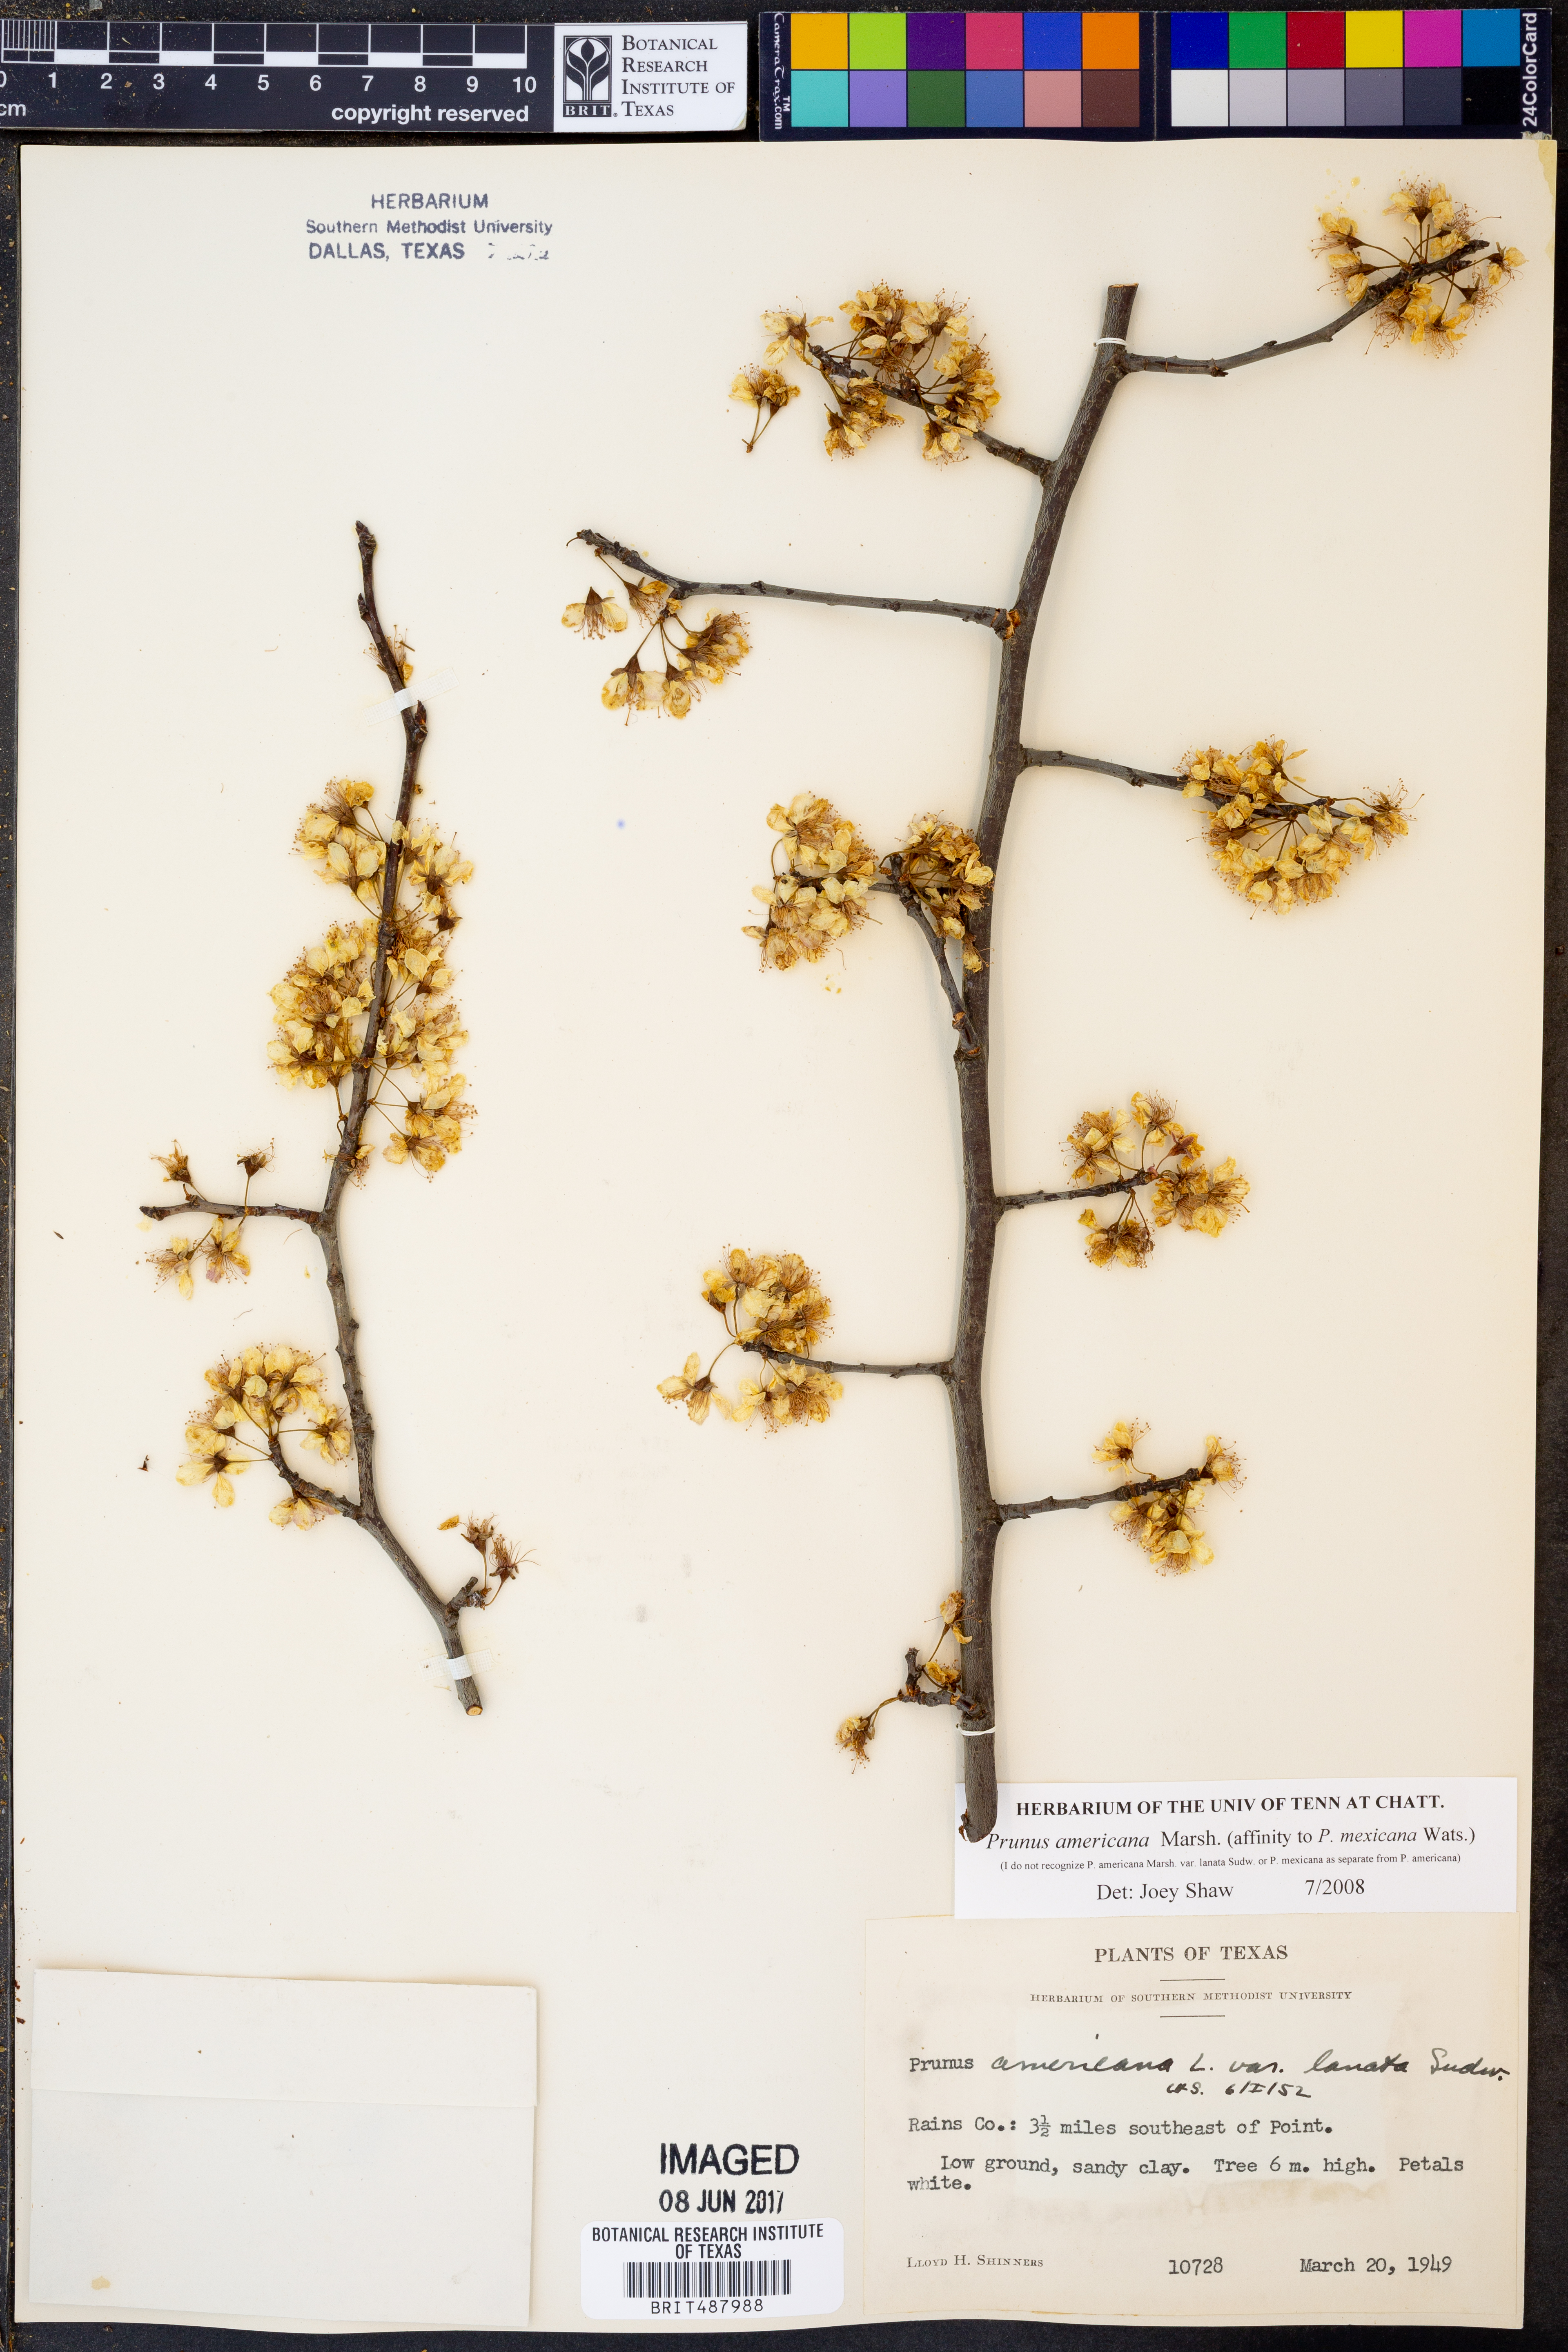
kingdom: Plantae
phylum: Tracheophyta
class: Magnoliopsida
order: Rosales
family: Rosaceae
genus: Prunus
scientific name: Prunus americana
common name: American plum
